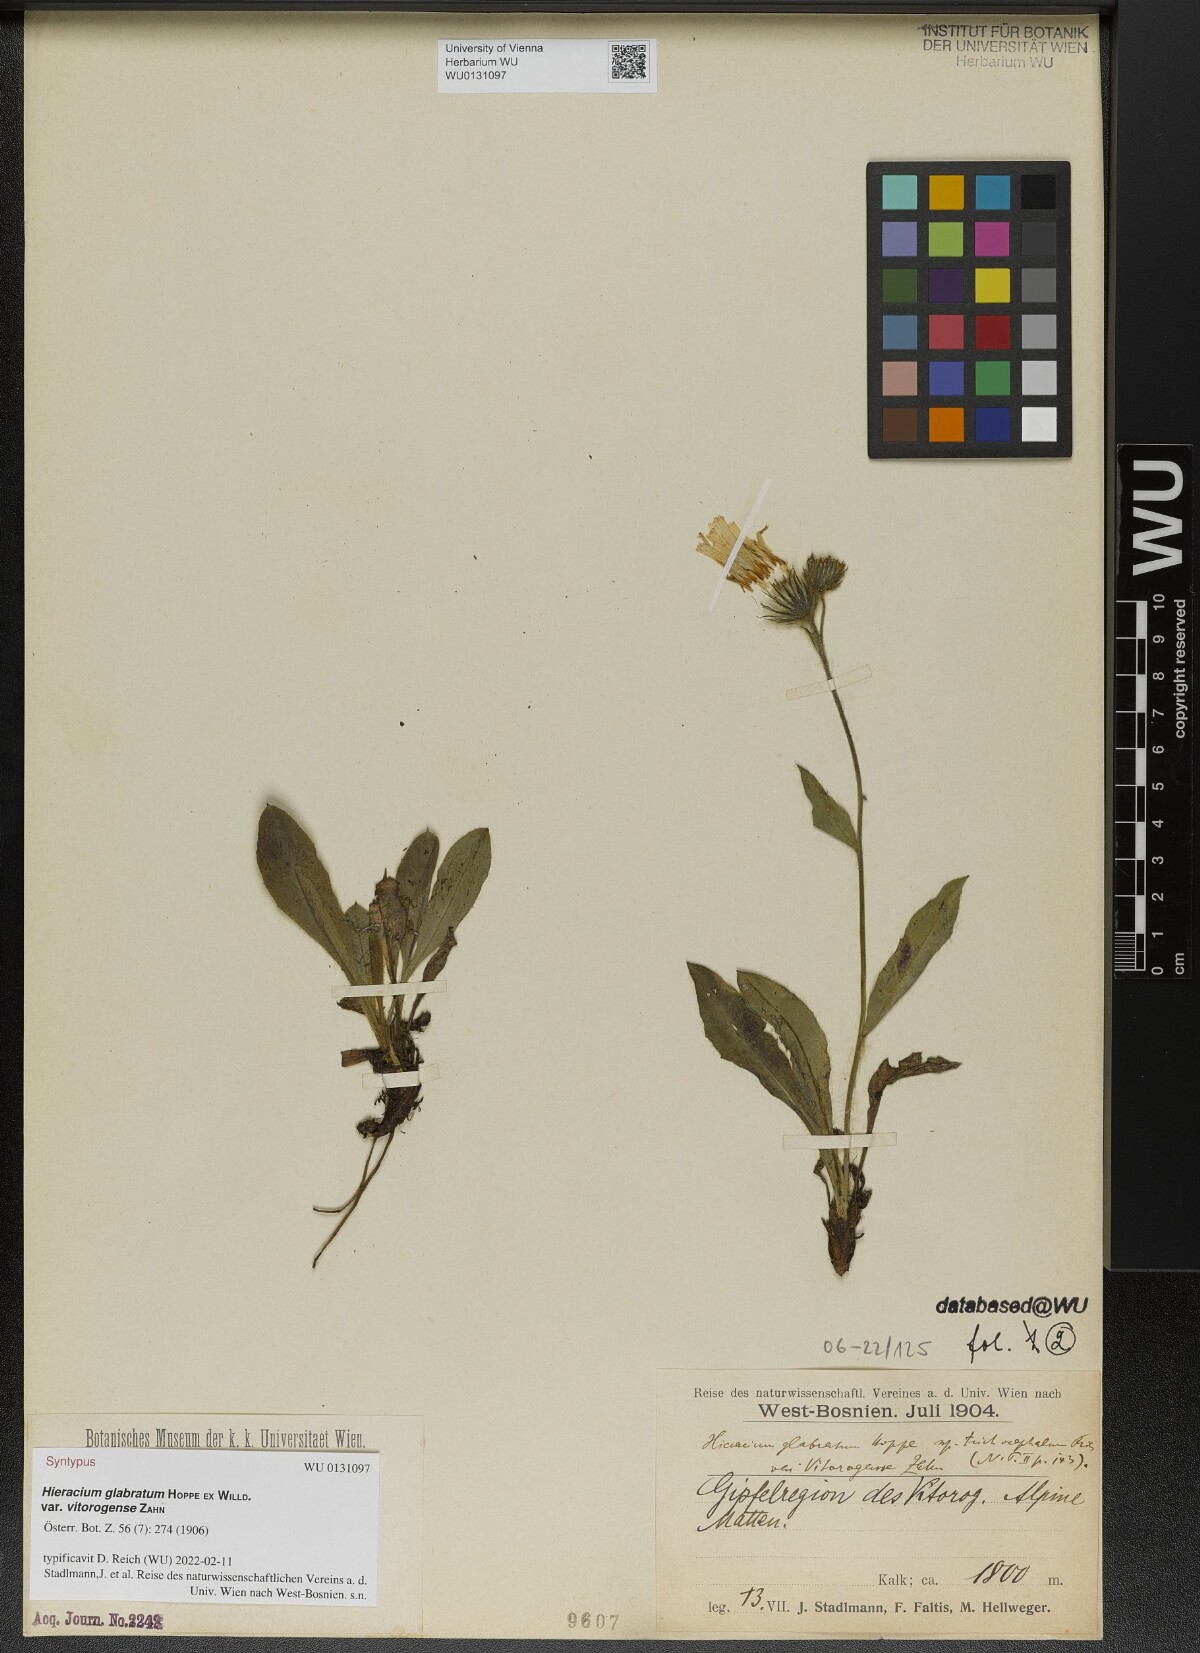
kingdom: Plantae
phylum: Tracheophyta
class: Magnoliopsida
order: Asterales
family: Asteraceae
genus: Hieracium
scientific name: Hieracium glabratum
